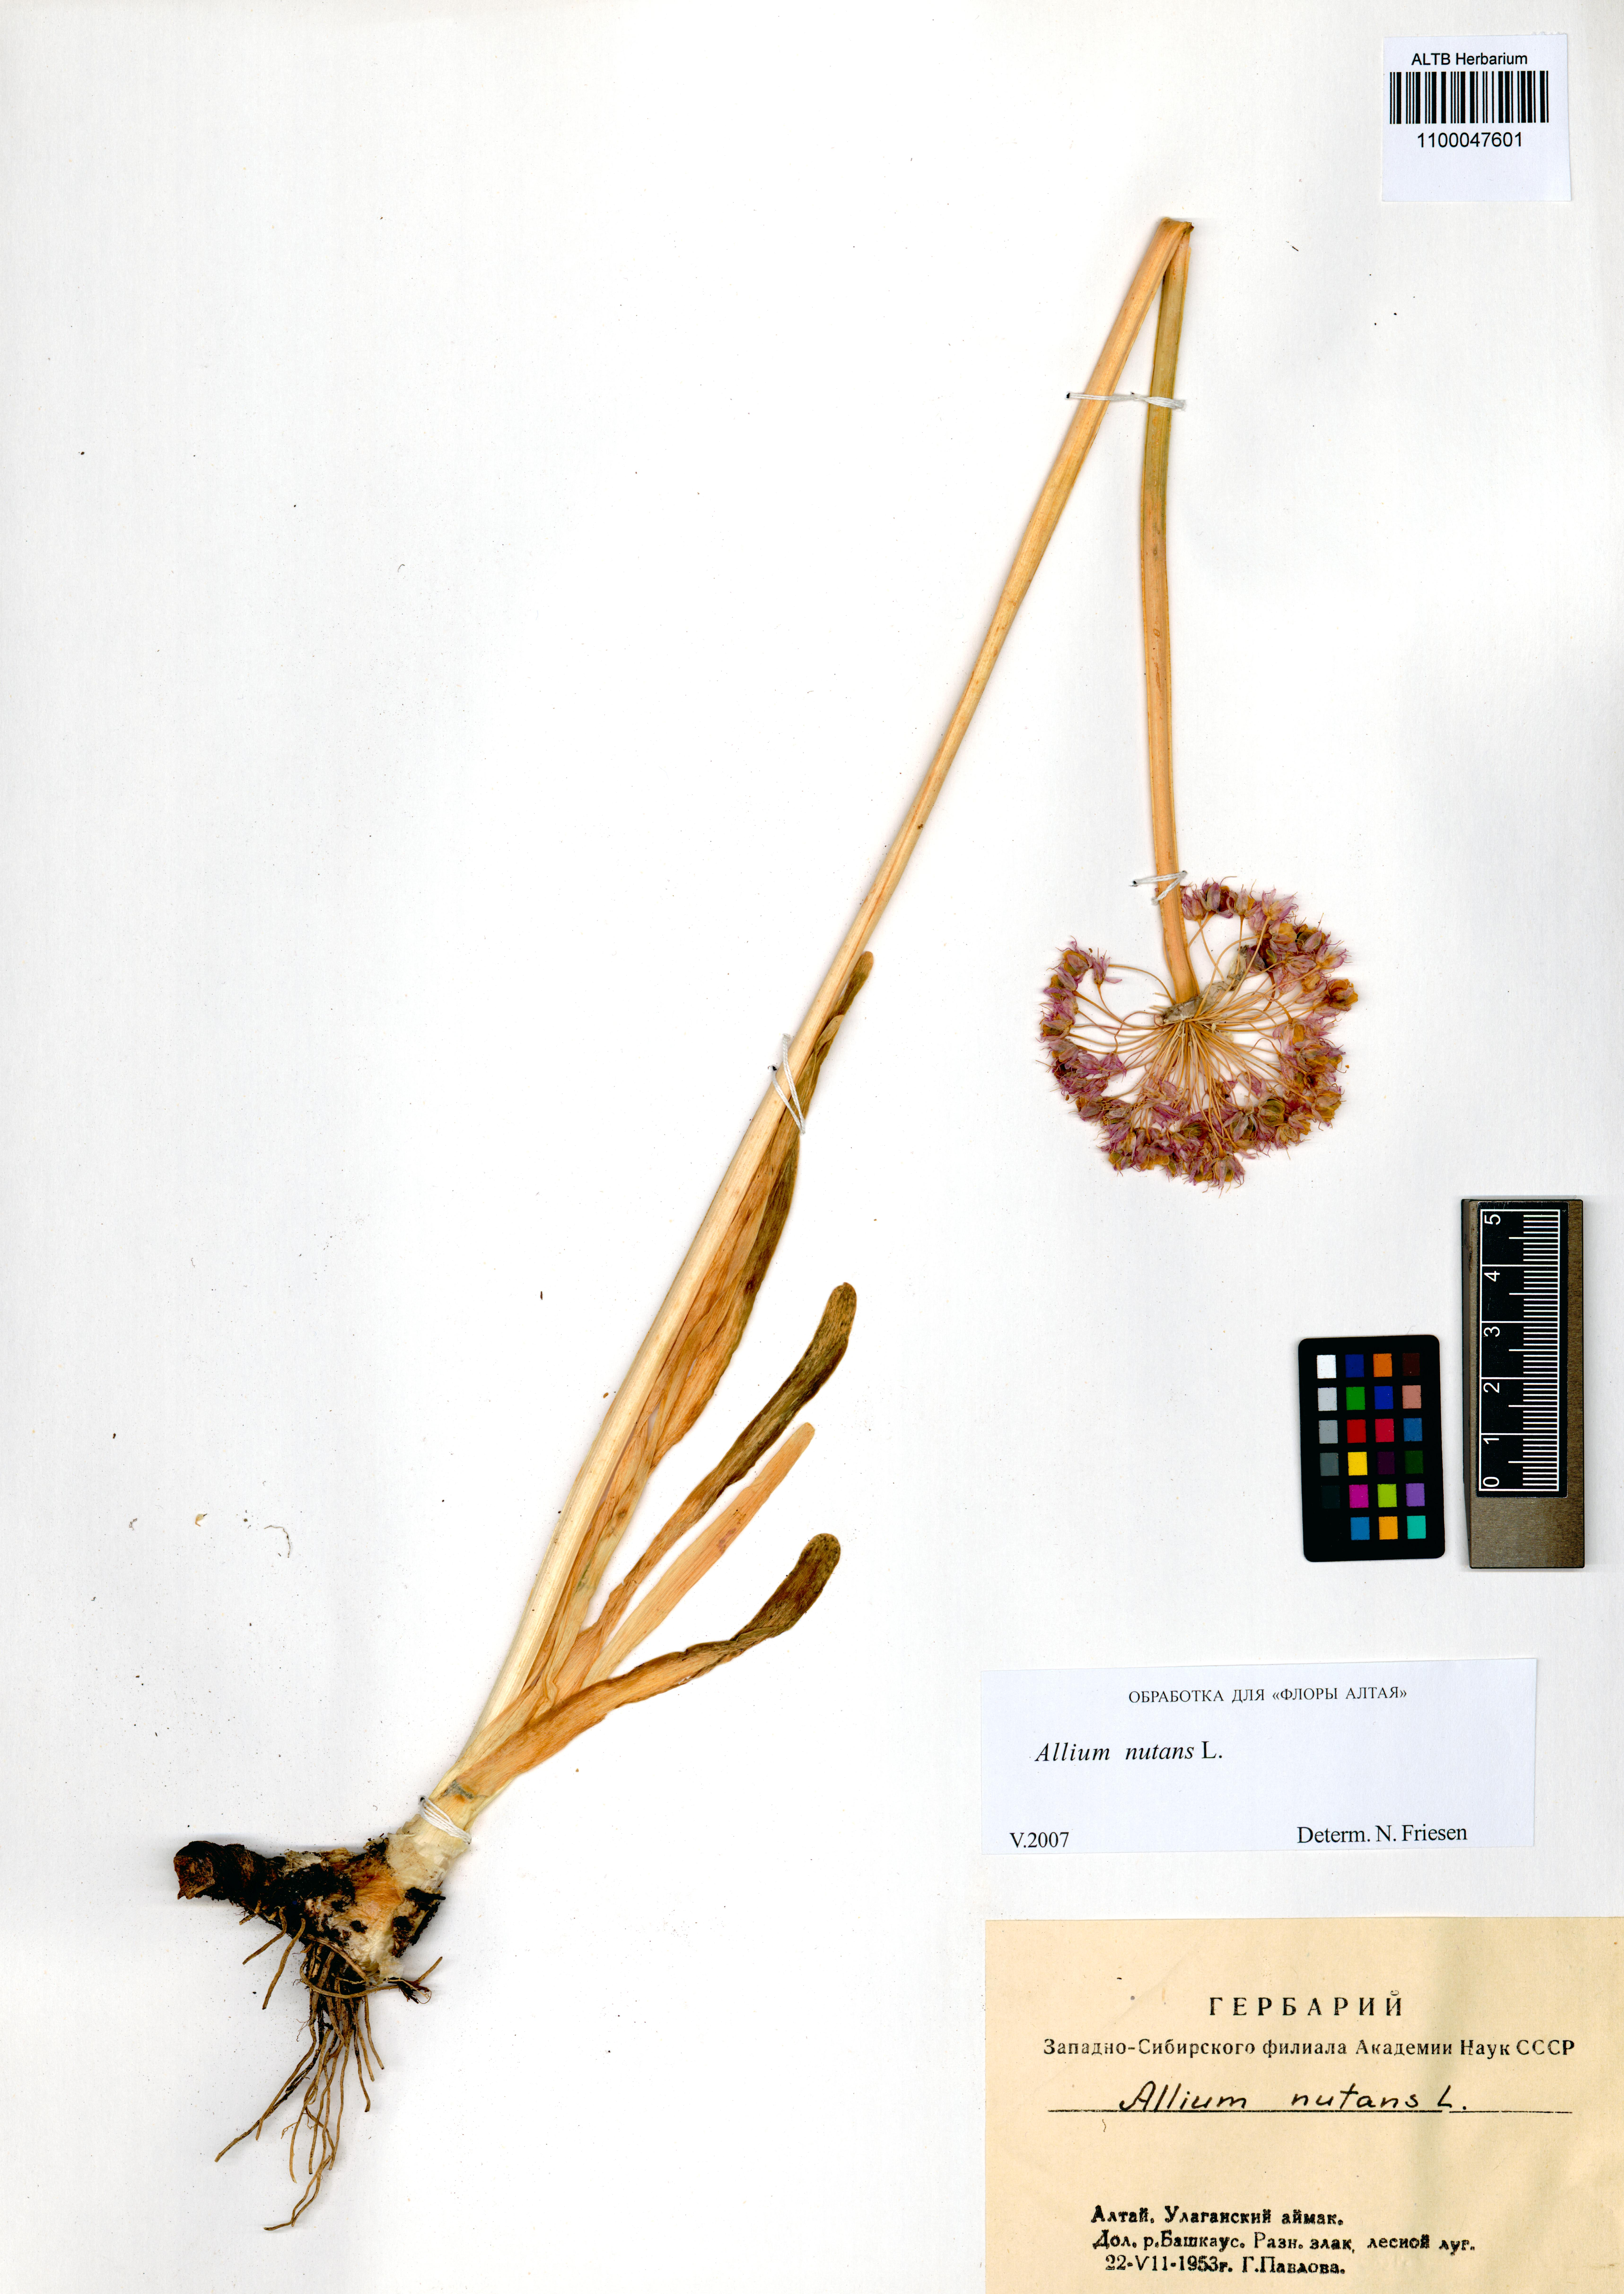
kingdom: Plantae
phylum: Tracheophyta
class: Liliopsida
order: Asparagales
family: Amaryllidaceae
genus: Allium
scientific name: Allium nutans
